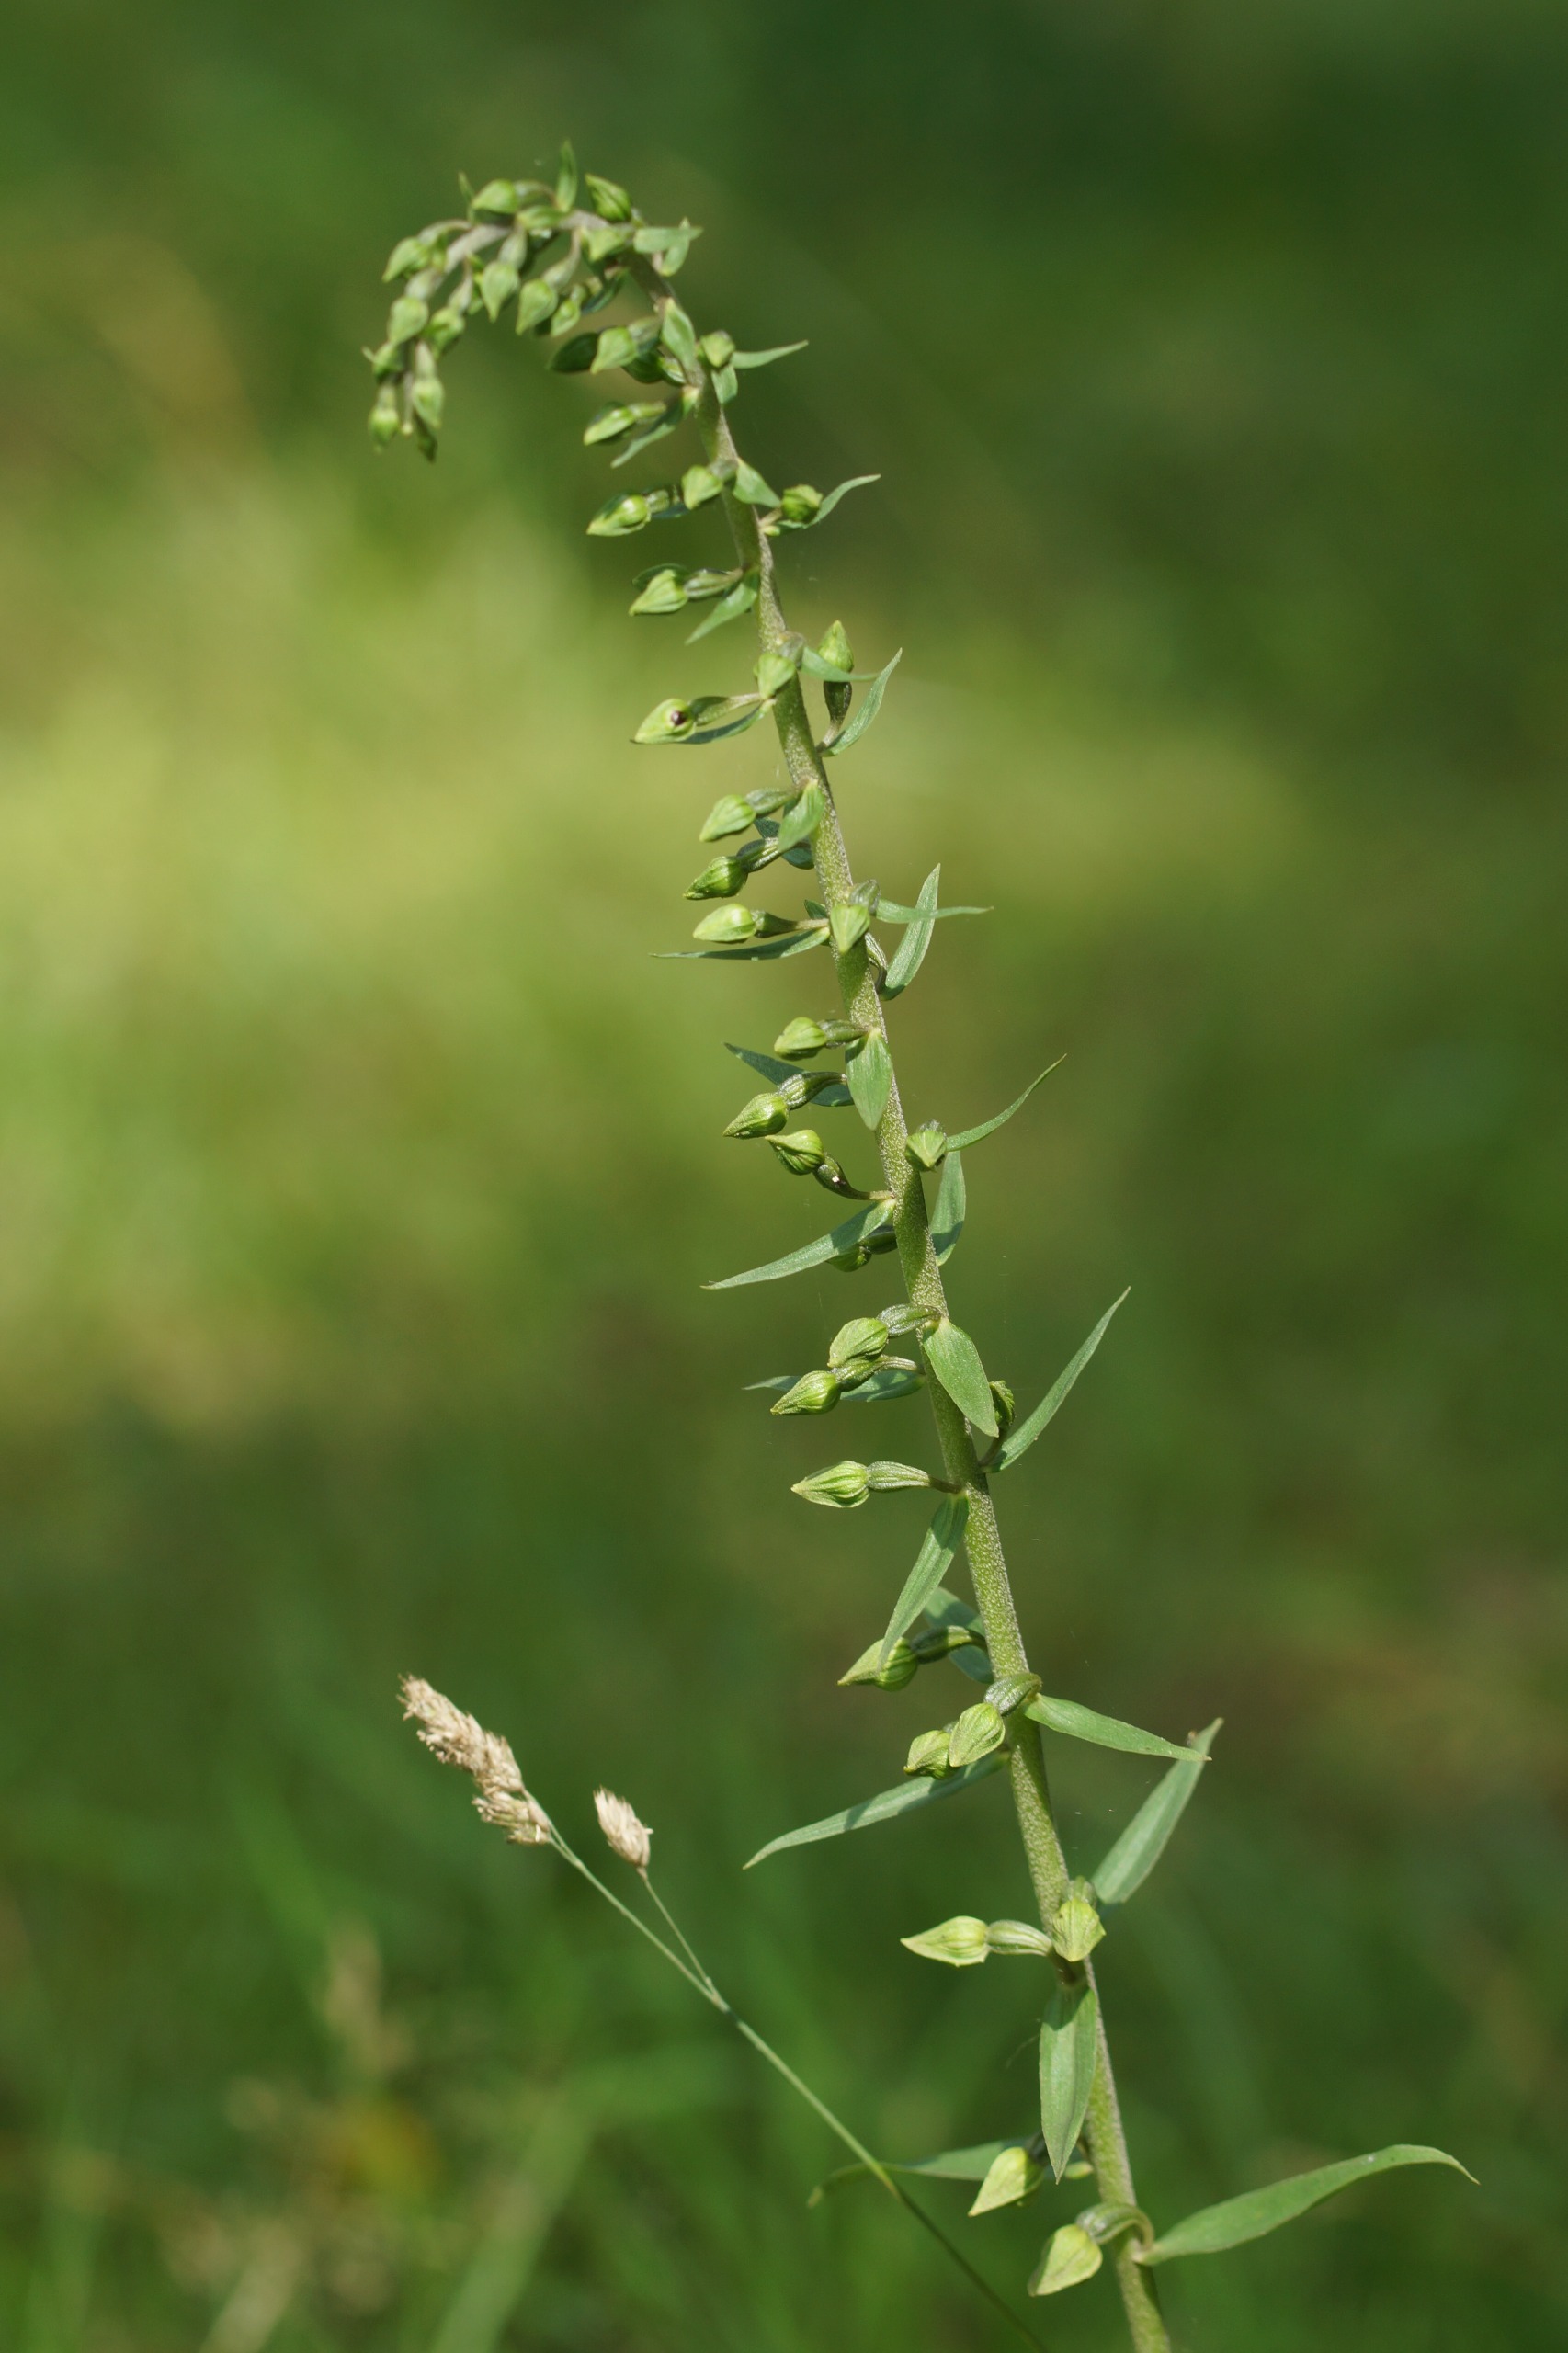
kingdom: Plantae
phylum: Tracheophyta
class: Liliopsida
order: Asparagales
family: Orchidaceae
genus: Epipactis
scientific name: Epipactis helleborine
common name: Skov-hullæbe
